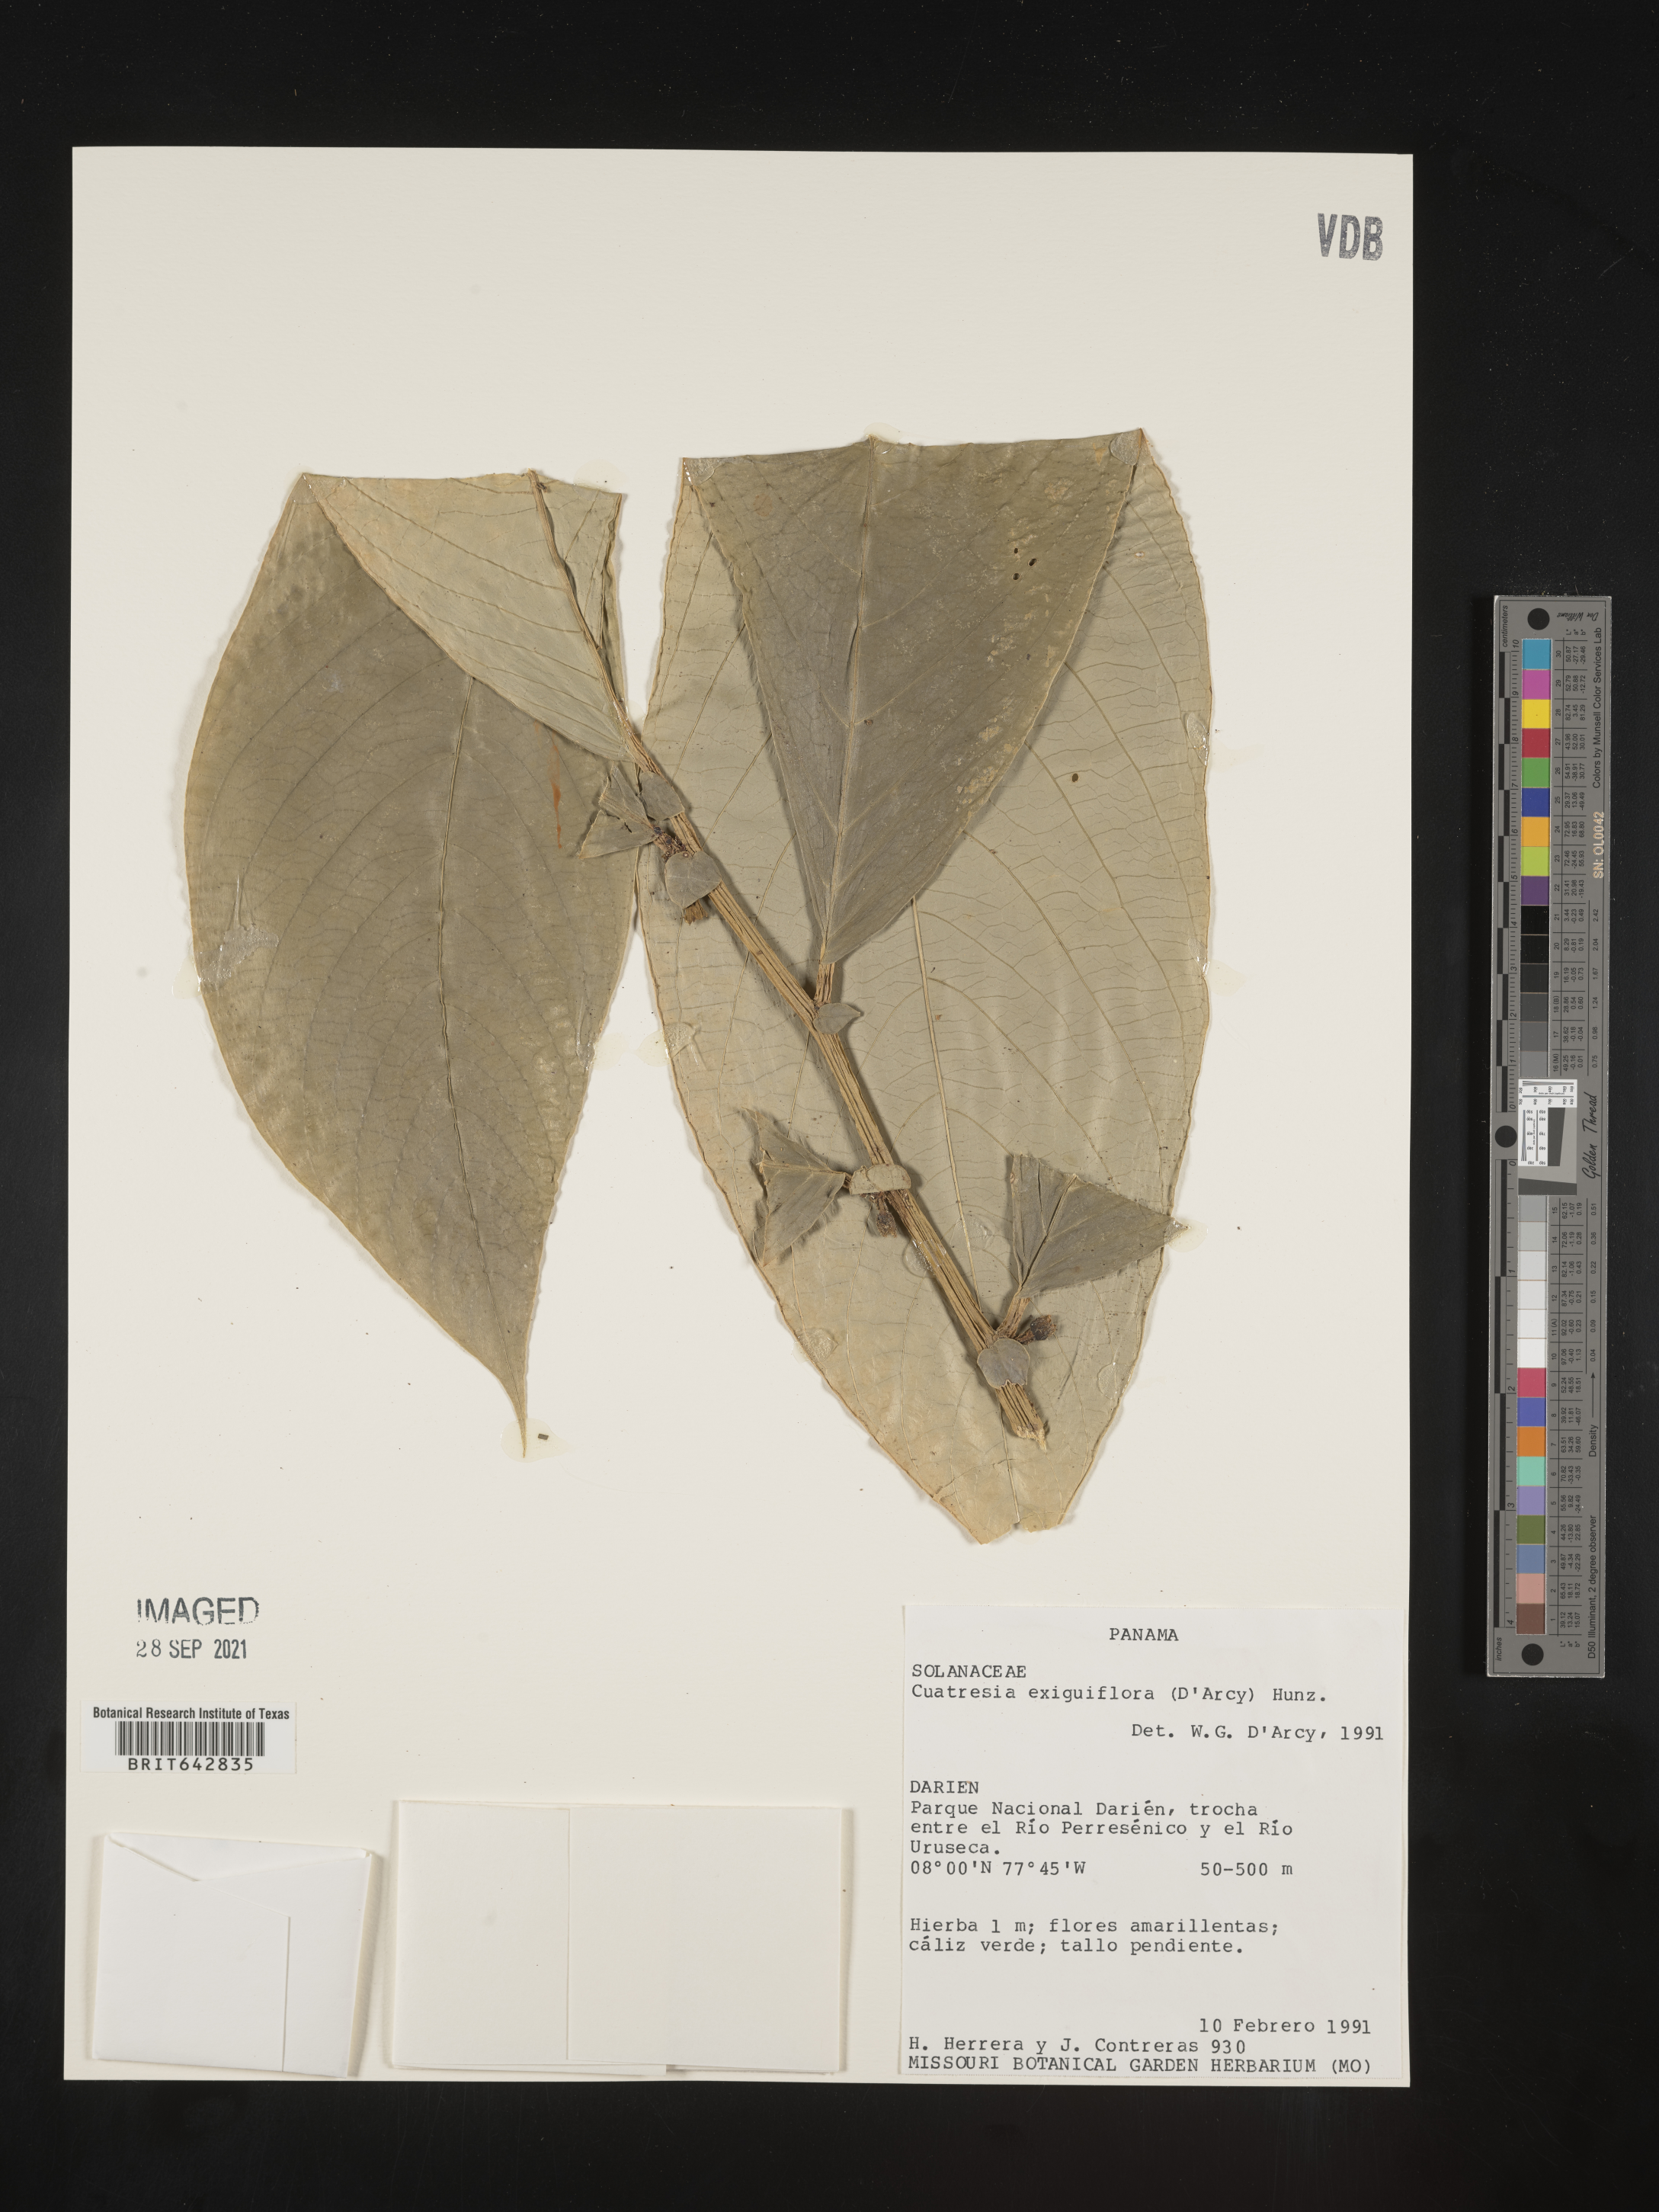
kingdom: Plantae
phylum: Tracheophyta
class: Magnoliopsida
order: Solanales
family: Solanaceae
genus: Cuatresia
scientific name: Cuatresia
